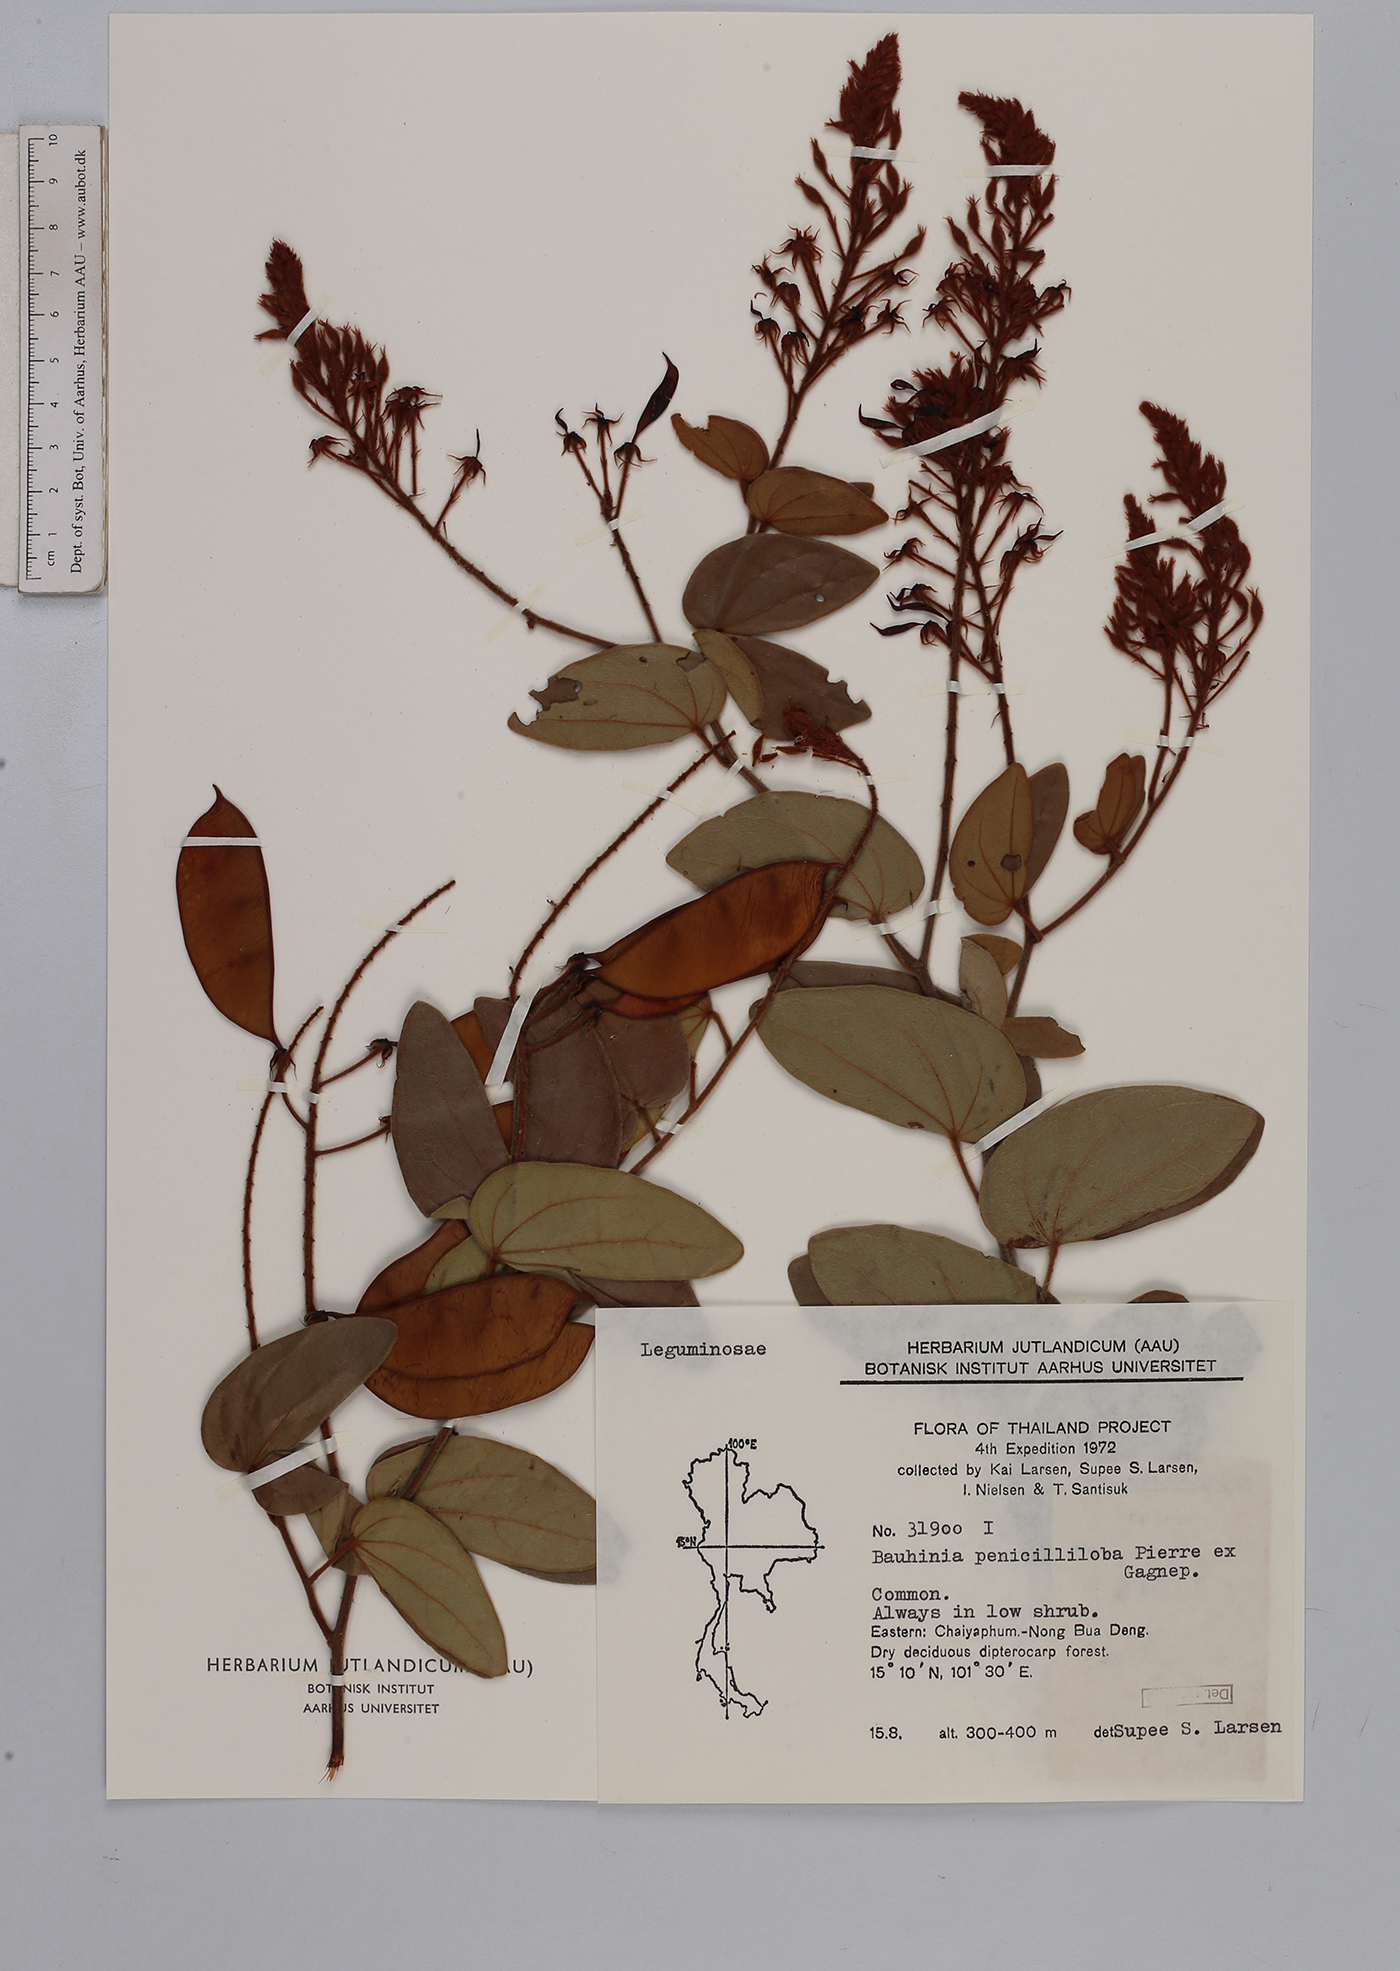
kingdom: Plantae
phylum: Tracheophyta
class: Magnoliopsida
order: Fabales
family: Fabaceae
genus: Phanera
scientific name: Phanera penicilliloba
